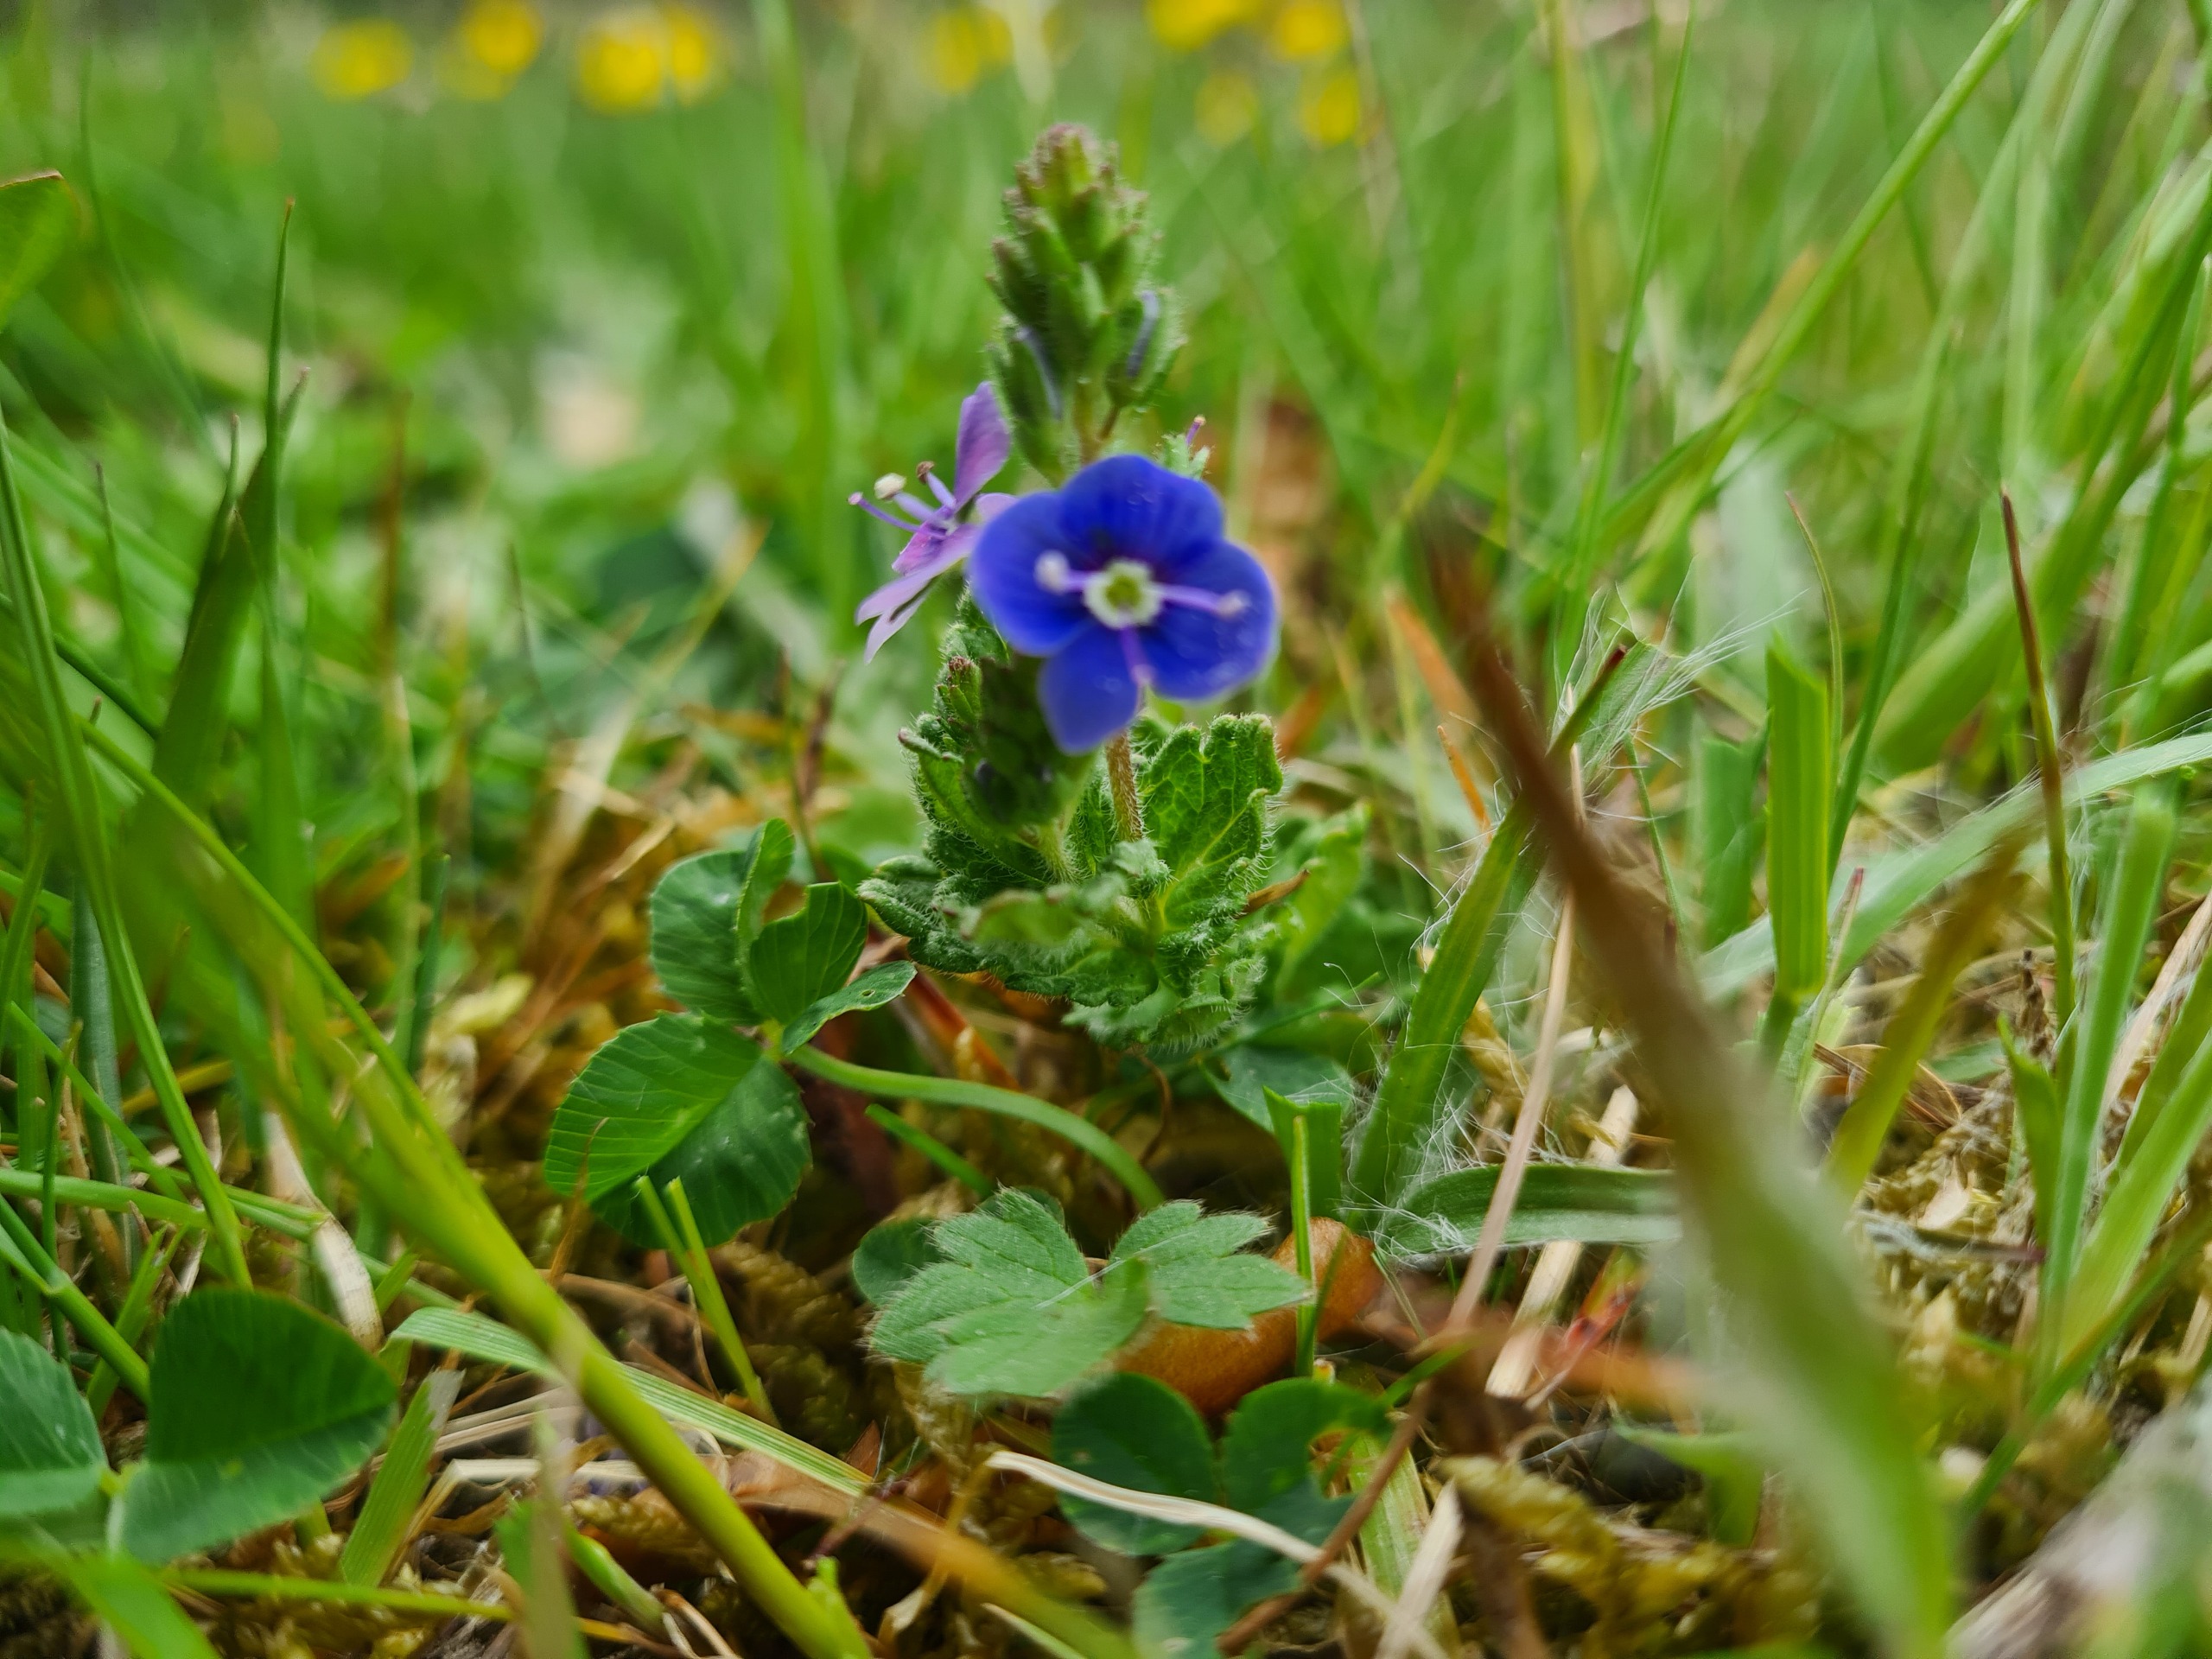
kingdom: Plantae
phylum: Tracheophyta
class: Magnoliopsida
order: Lamiales
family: Plantaginaceae
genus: Veronica
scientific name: Veronica chamaedrys
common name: Tveskægget ærenpris
